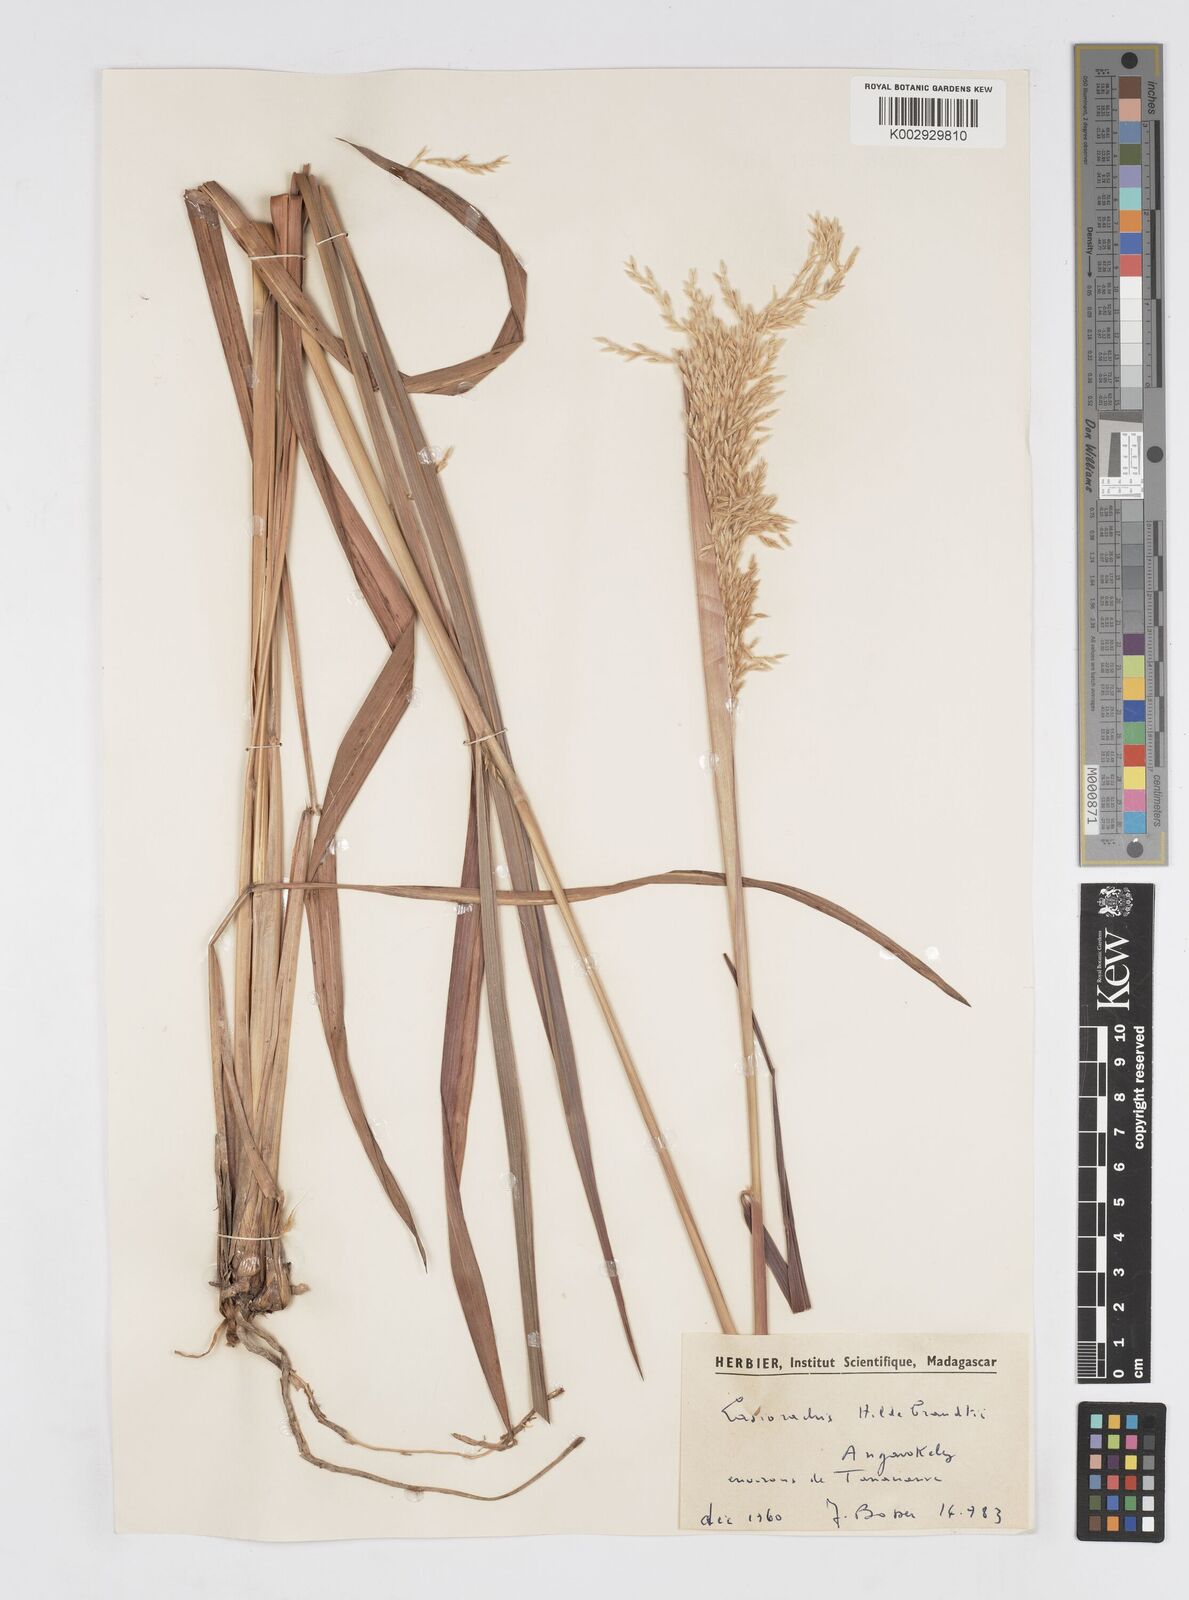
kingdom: Plantae
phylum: Tracheophyta
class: Liliopsida
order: Poales
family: Poaceae
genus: Lasiorhachis
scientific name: Lasiorhachis hildebrandtii
